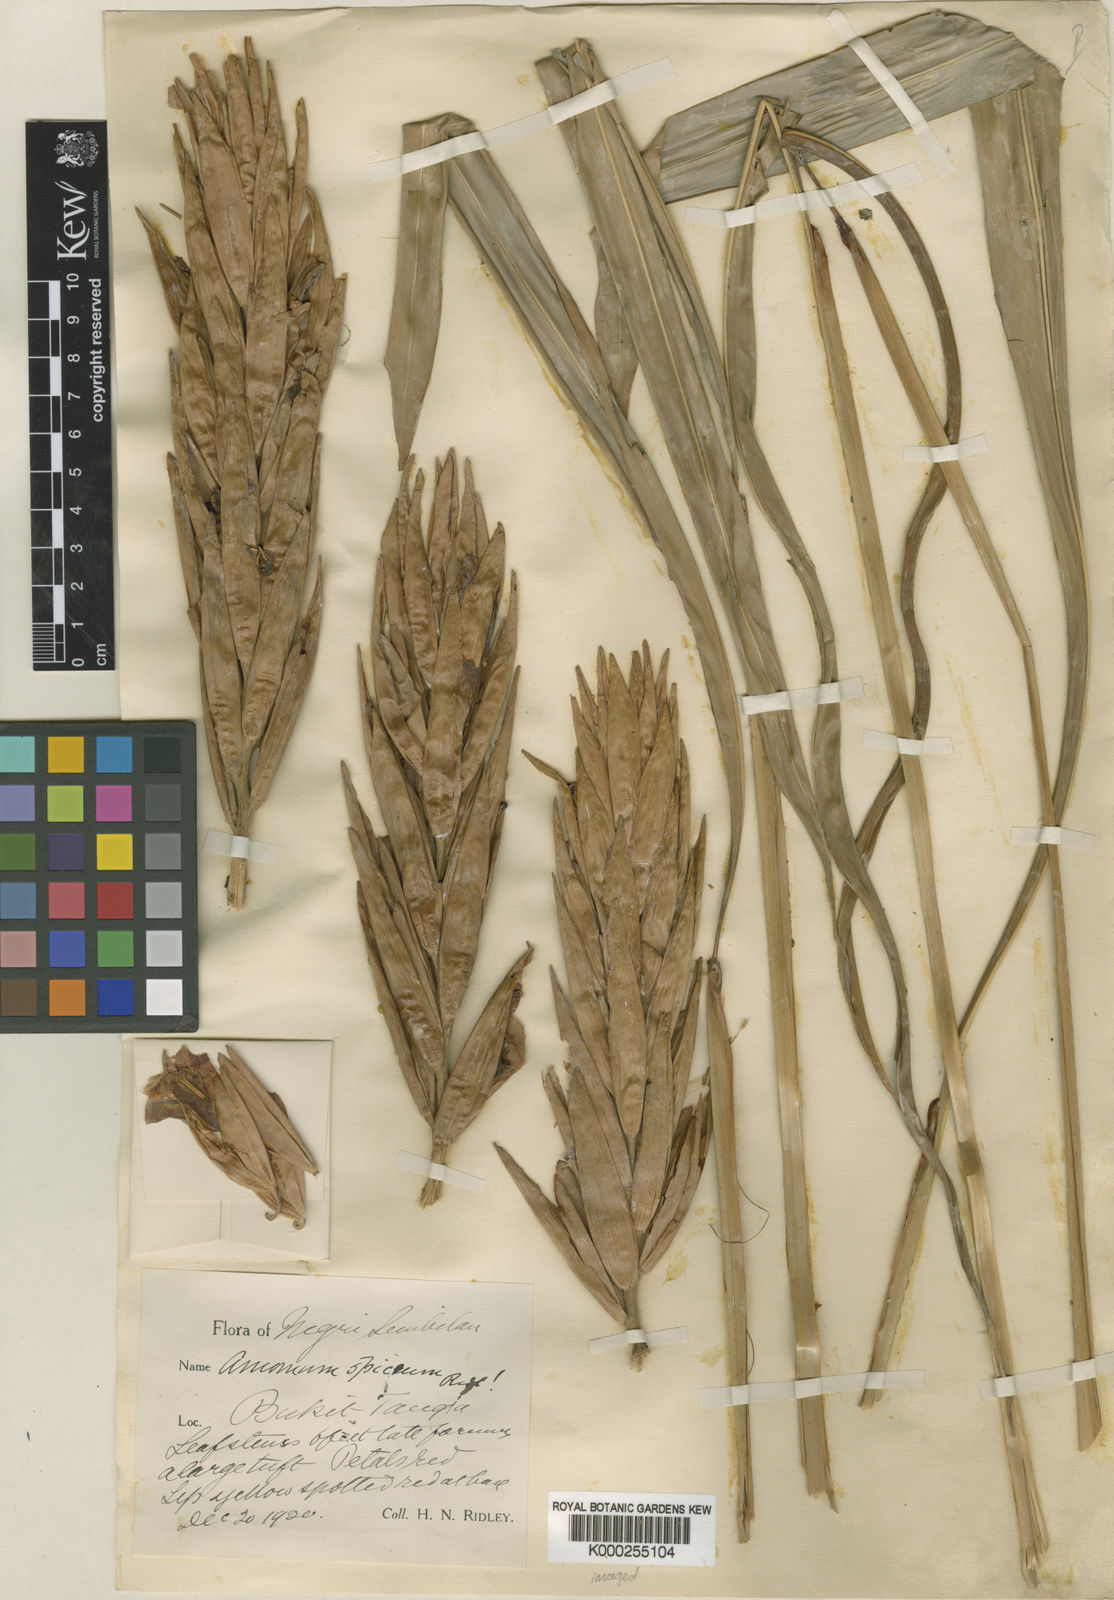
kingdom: Plantae
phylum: Tracheophyta
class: Liliopsida
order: Zingiberales
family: Zingiberaceae
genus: Conamomum
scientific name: Conamomum spiceum
